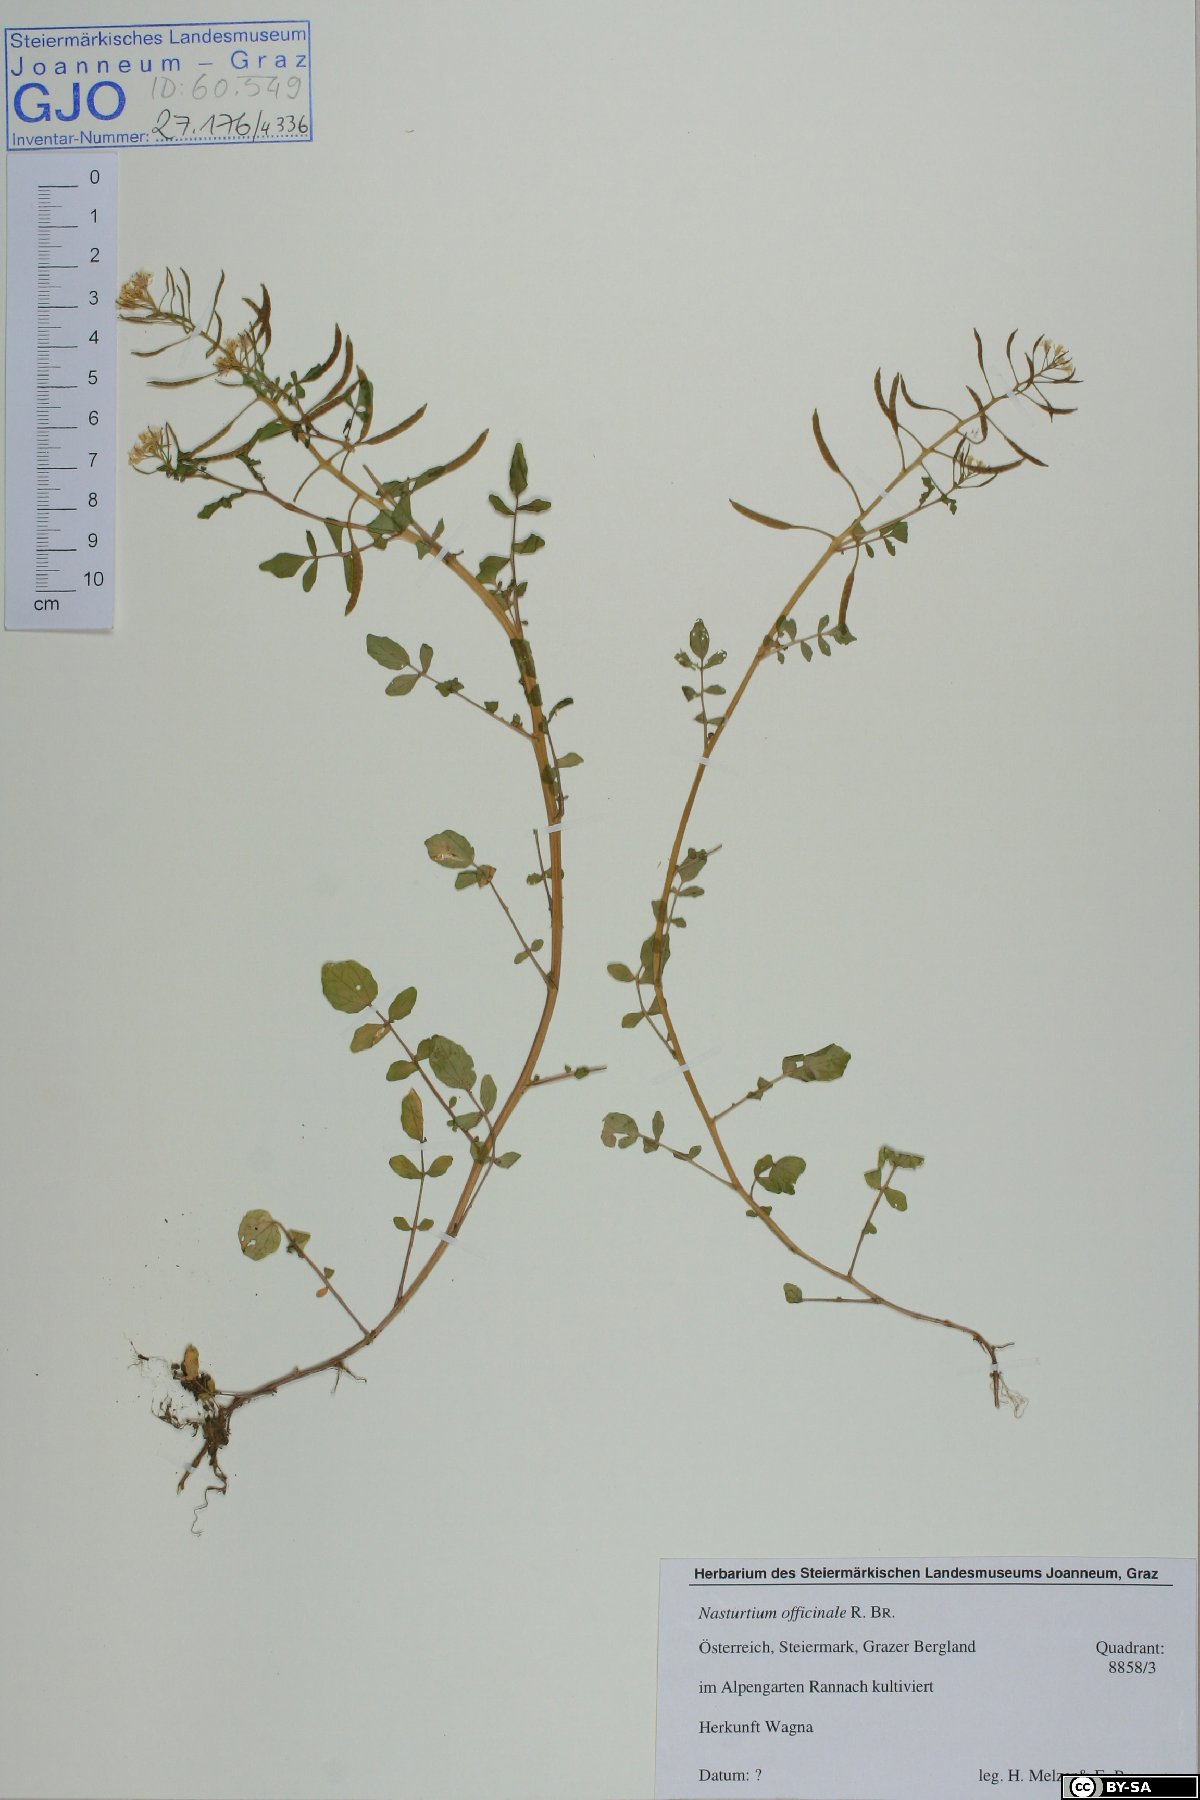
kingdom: Plantae
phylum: Tracheophyta
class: Magnoliopsida
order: Brassicales
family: Brassicaceae
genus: Nasturtium
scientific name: Nasturtium officinale
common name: Watercress
